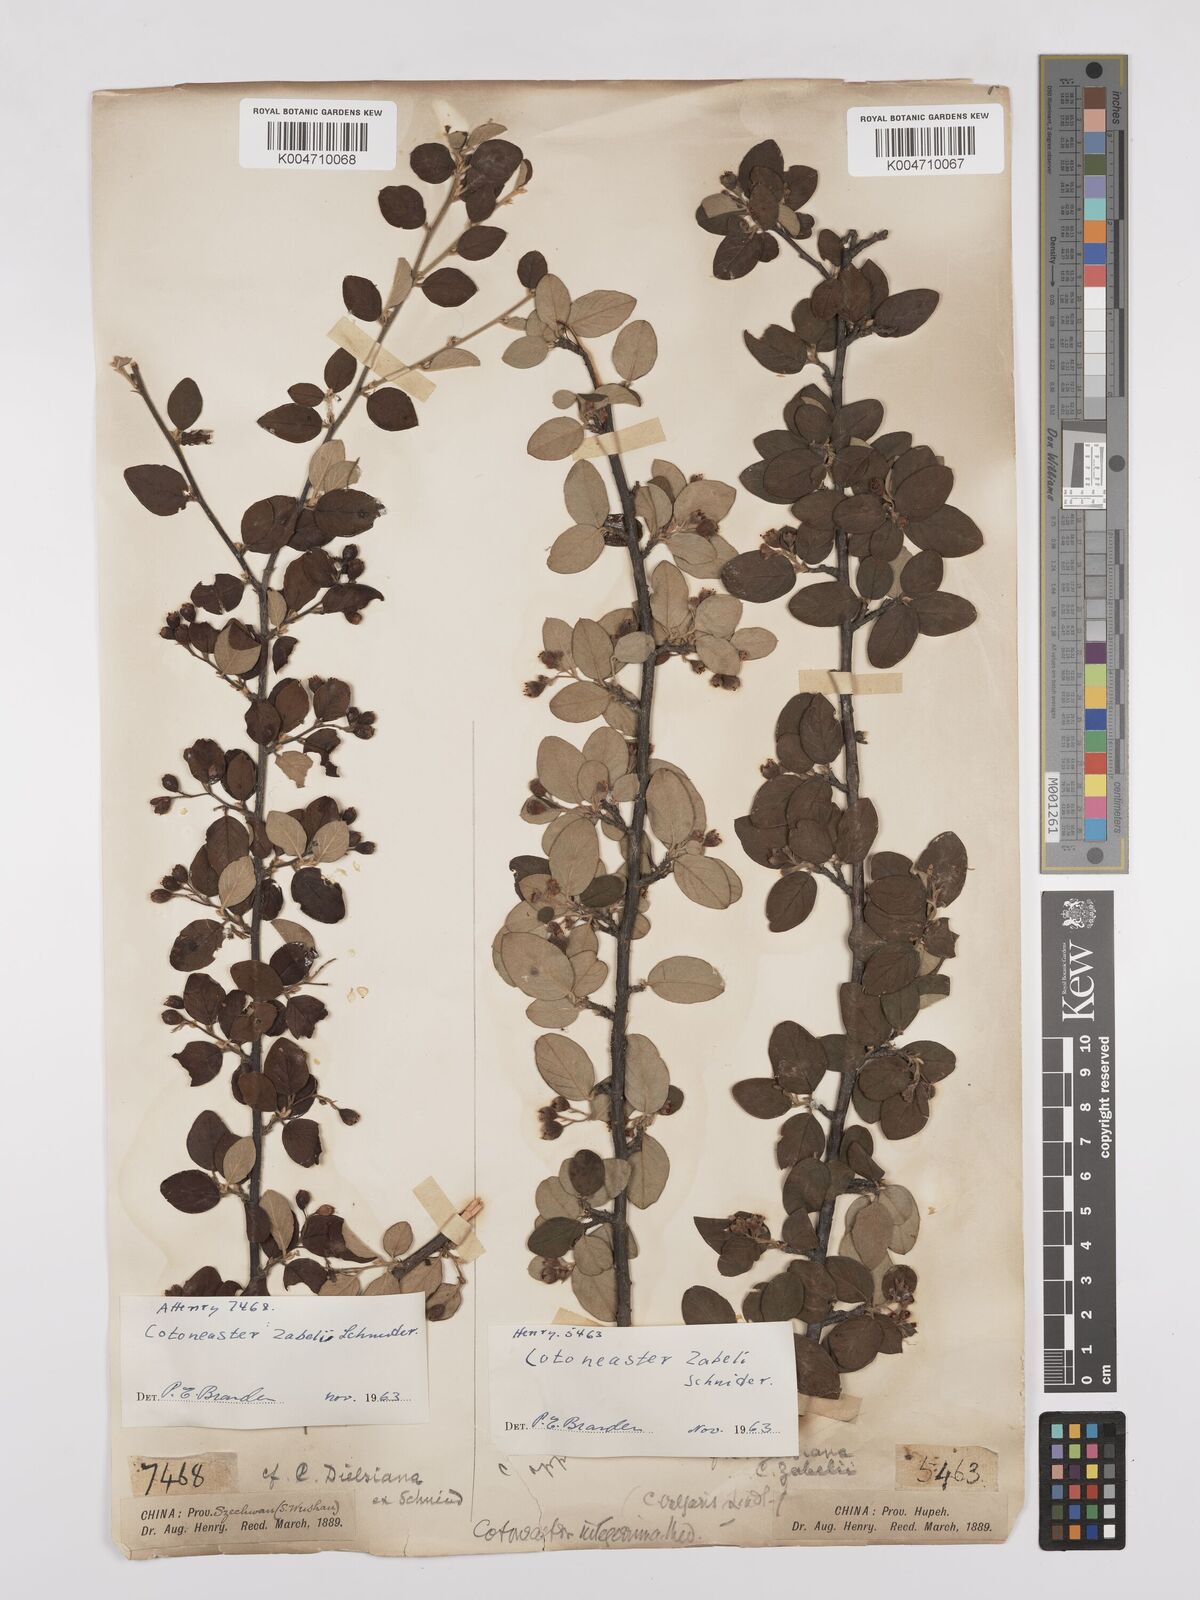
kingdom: Plantae
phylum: Tracheophyta
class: Magnoliopsida
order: Rosales
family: Rosaceae
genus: Cotoneaster
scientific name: Cotoneaster zabelii
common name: Cherryred cotoneaster
